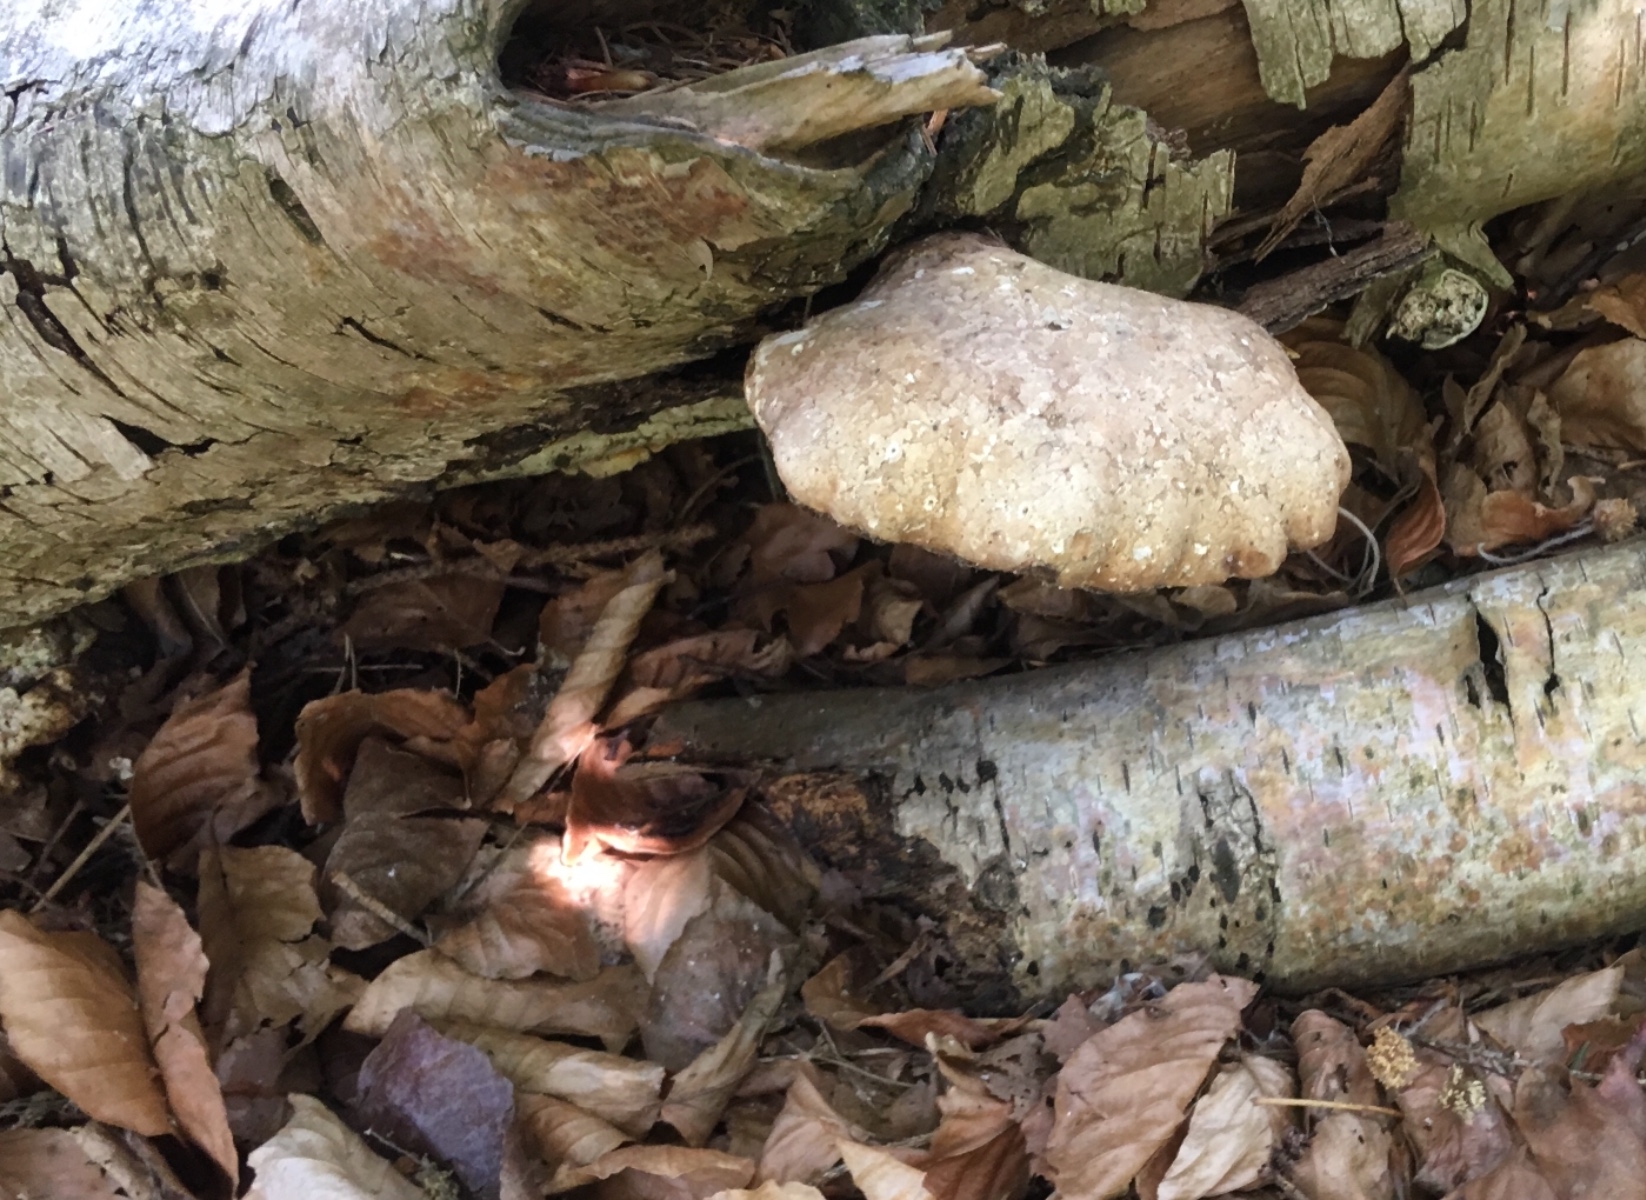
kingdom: Fungi
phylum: Basidiomycota
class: Agaricomycetes
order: Polyporales
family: Fomitopsidaceae
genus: Fomitopsis
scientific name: Fomitopsis betulina
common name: birkeporesvamp
